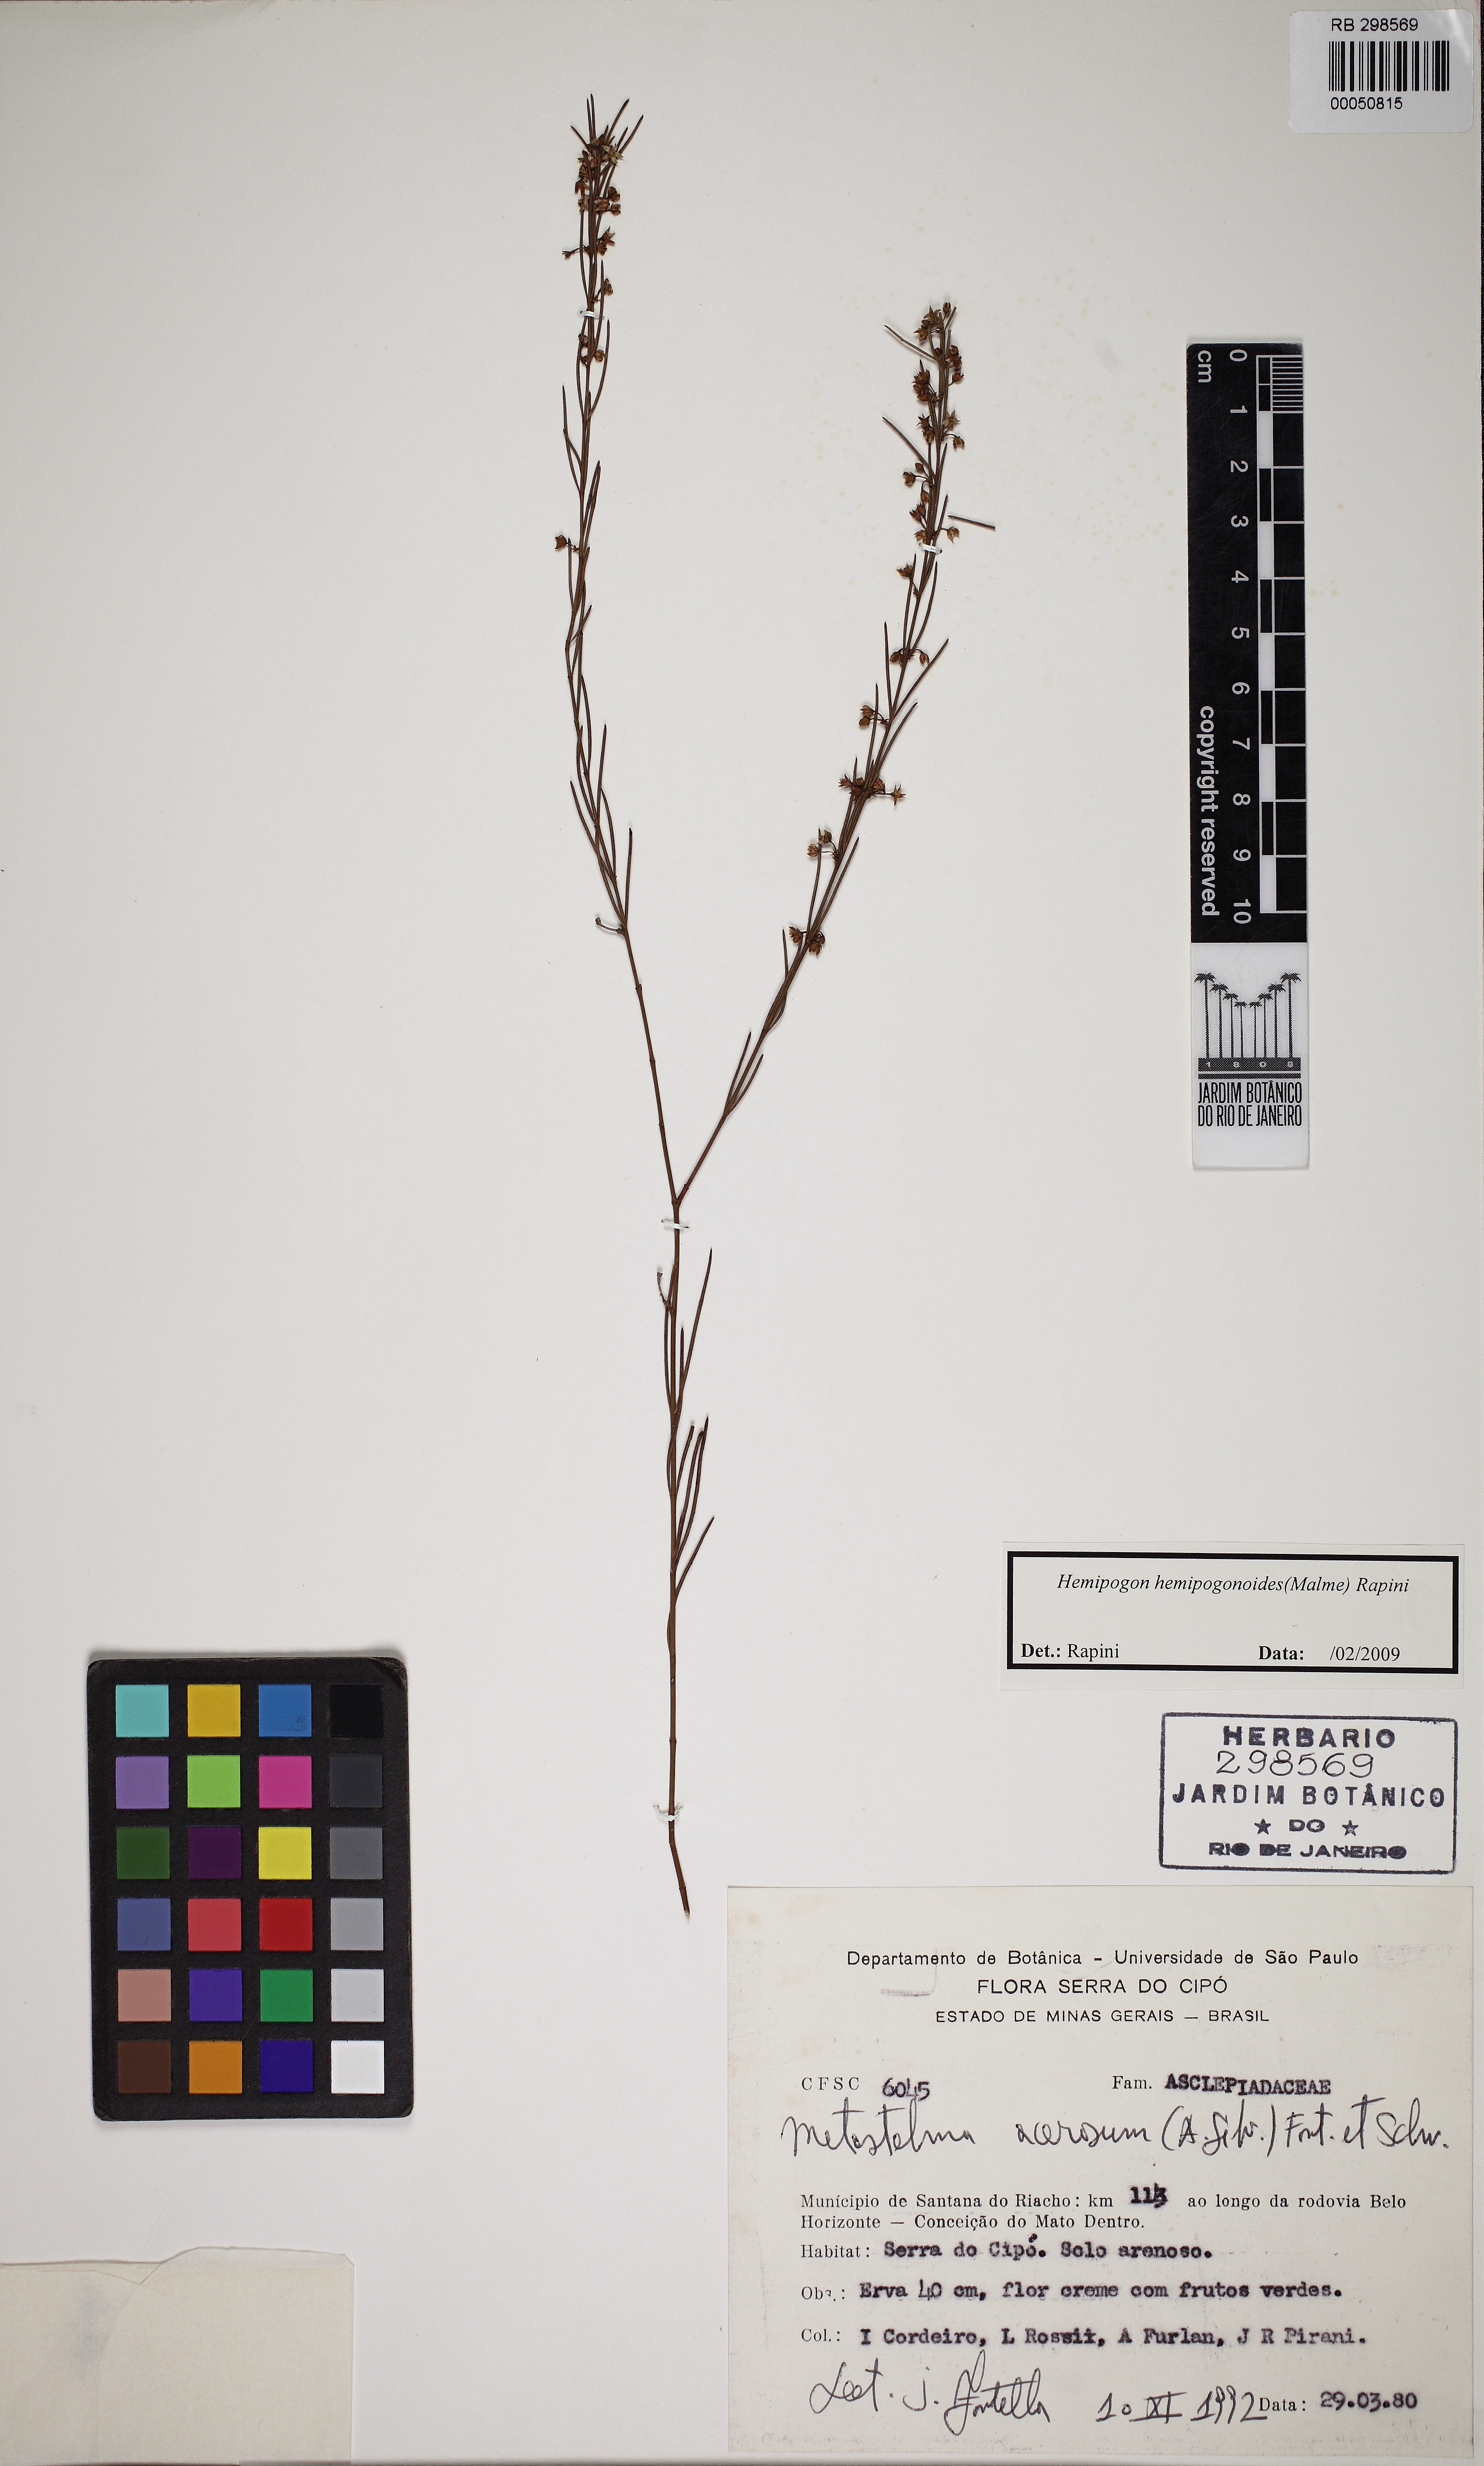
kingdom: Plantae
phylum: Tracheophyta
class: Magnoliopsida
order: Gentianales
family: Apocynaceae
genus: Hemipogon
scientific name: Hemipogon hemipogonoides
